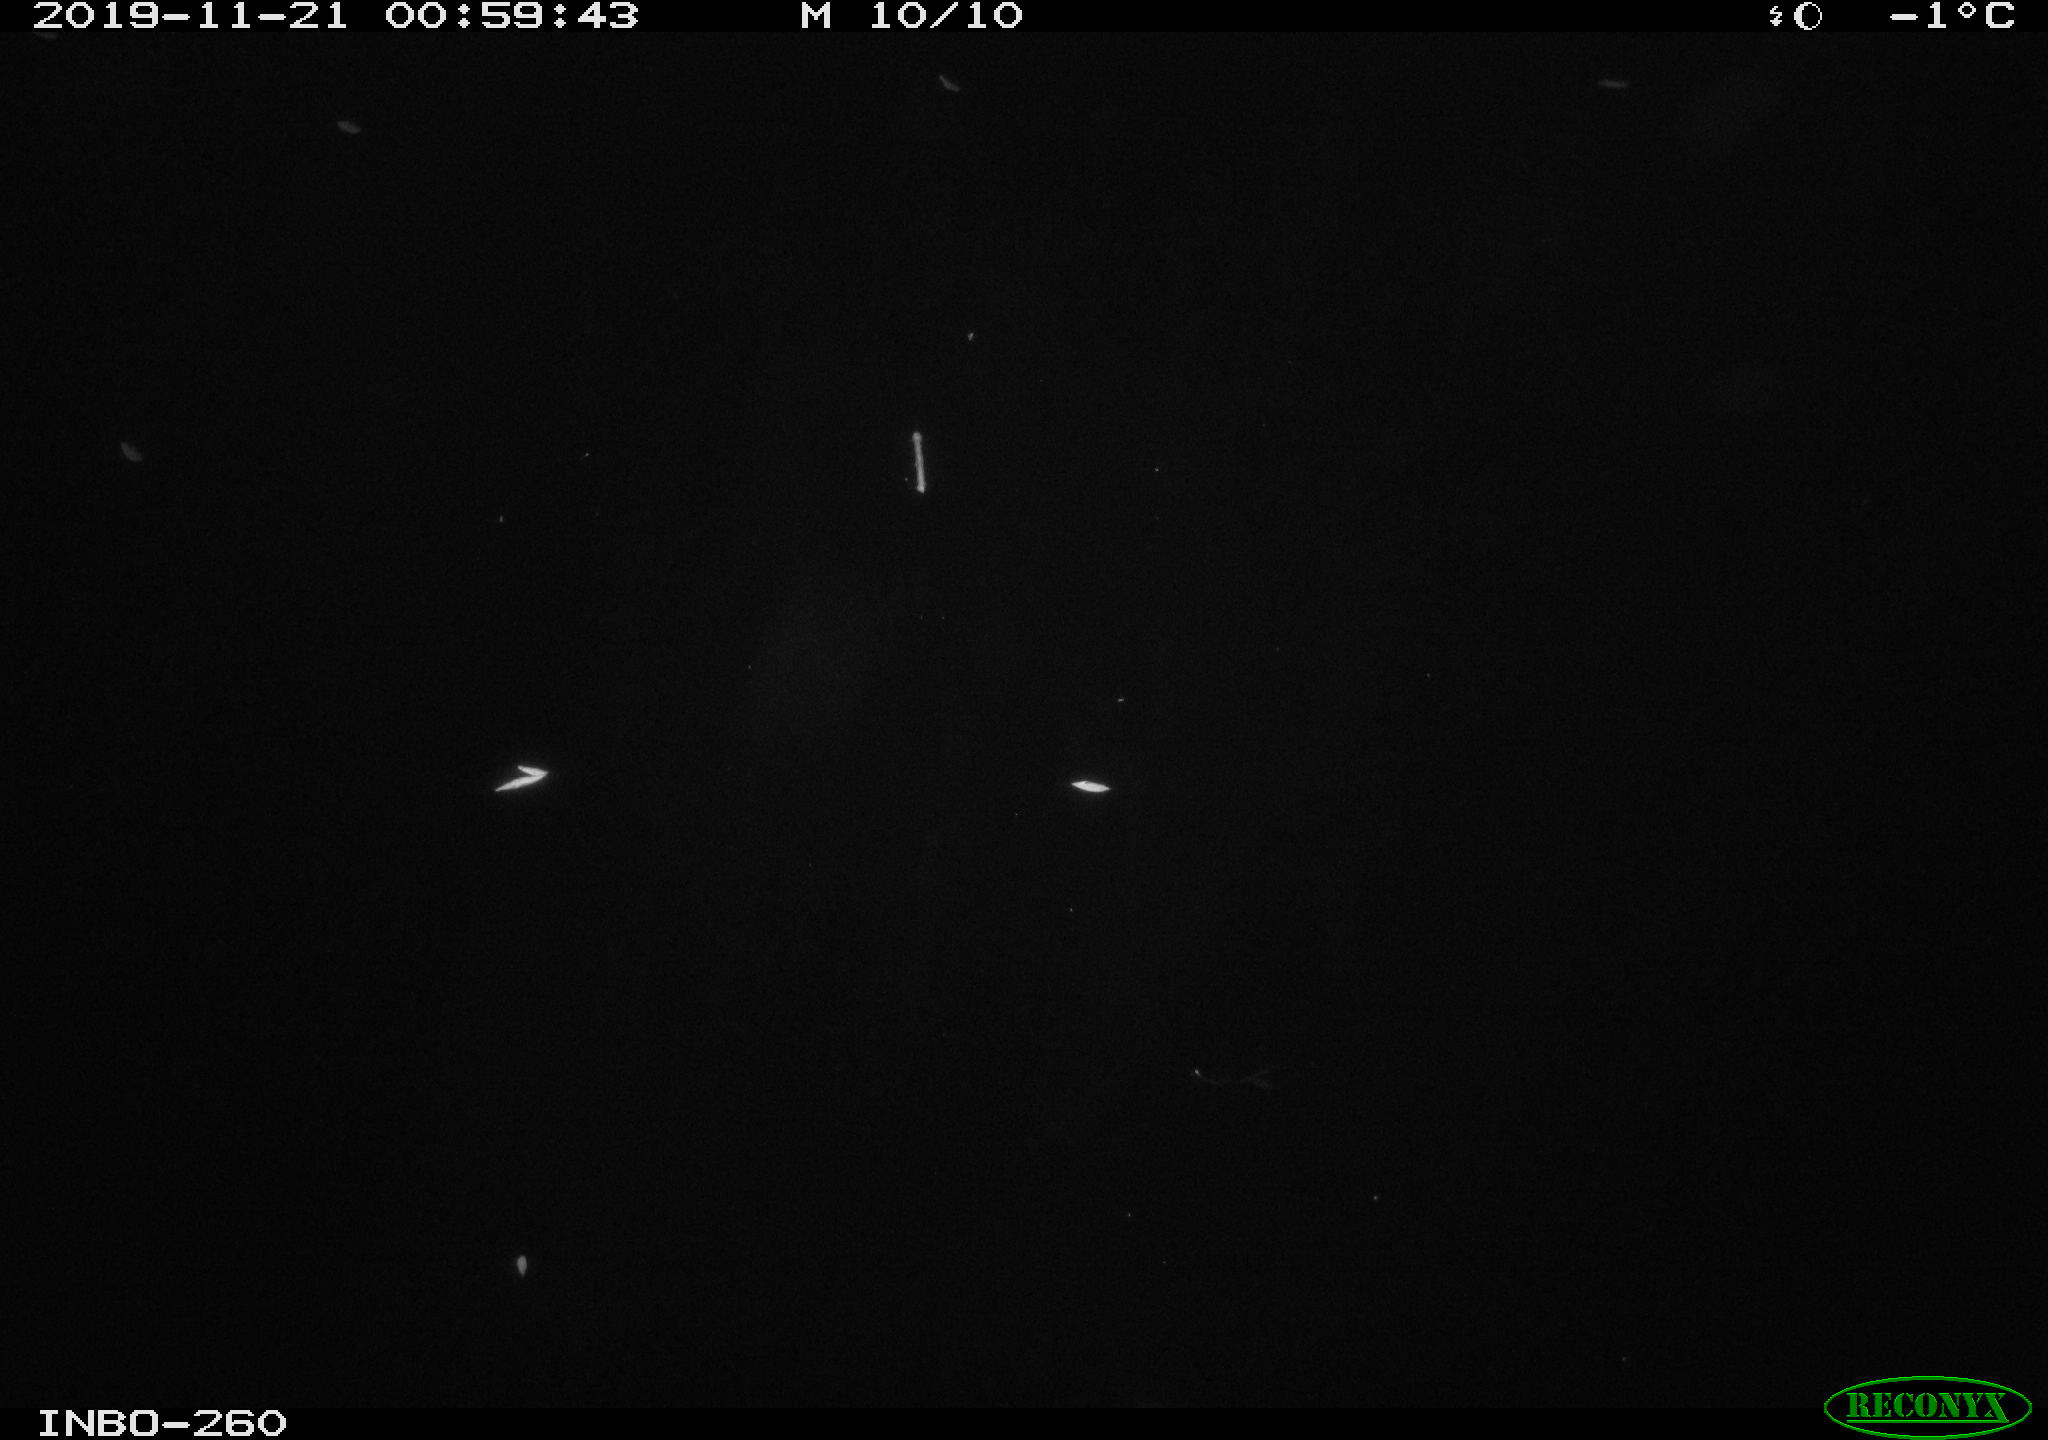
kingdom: Animalia
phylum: Chordata
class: Aves
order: Anseriformes
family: Anatidae
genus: Anas
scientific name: Anas platyrhynchos
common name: Mallard
